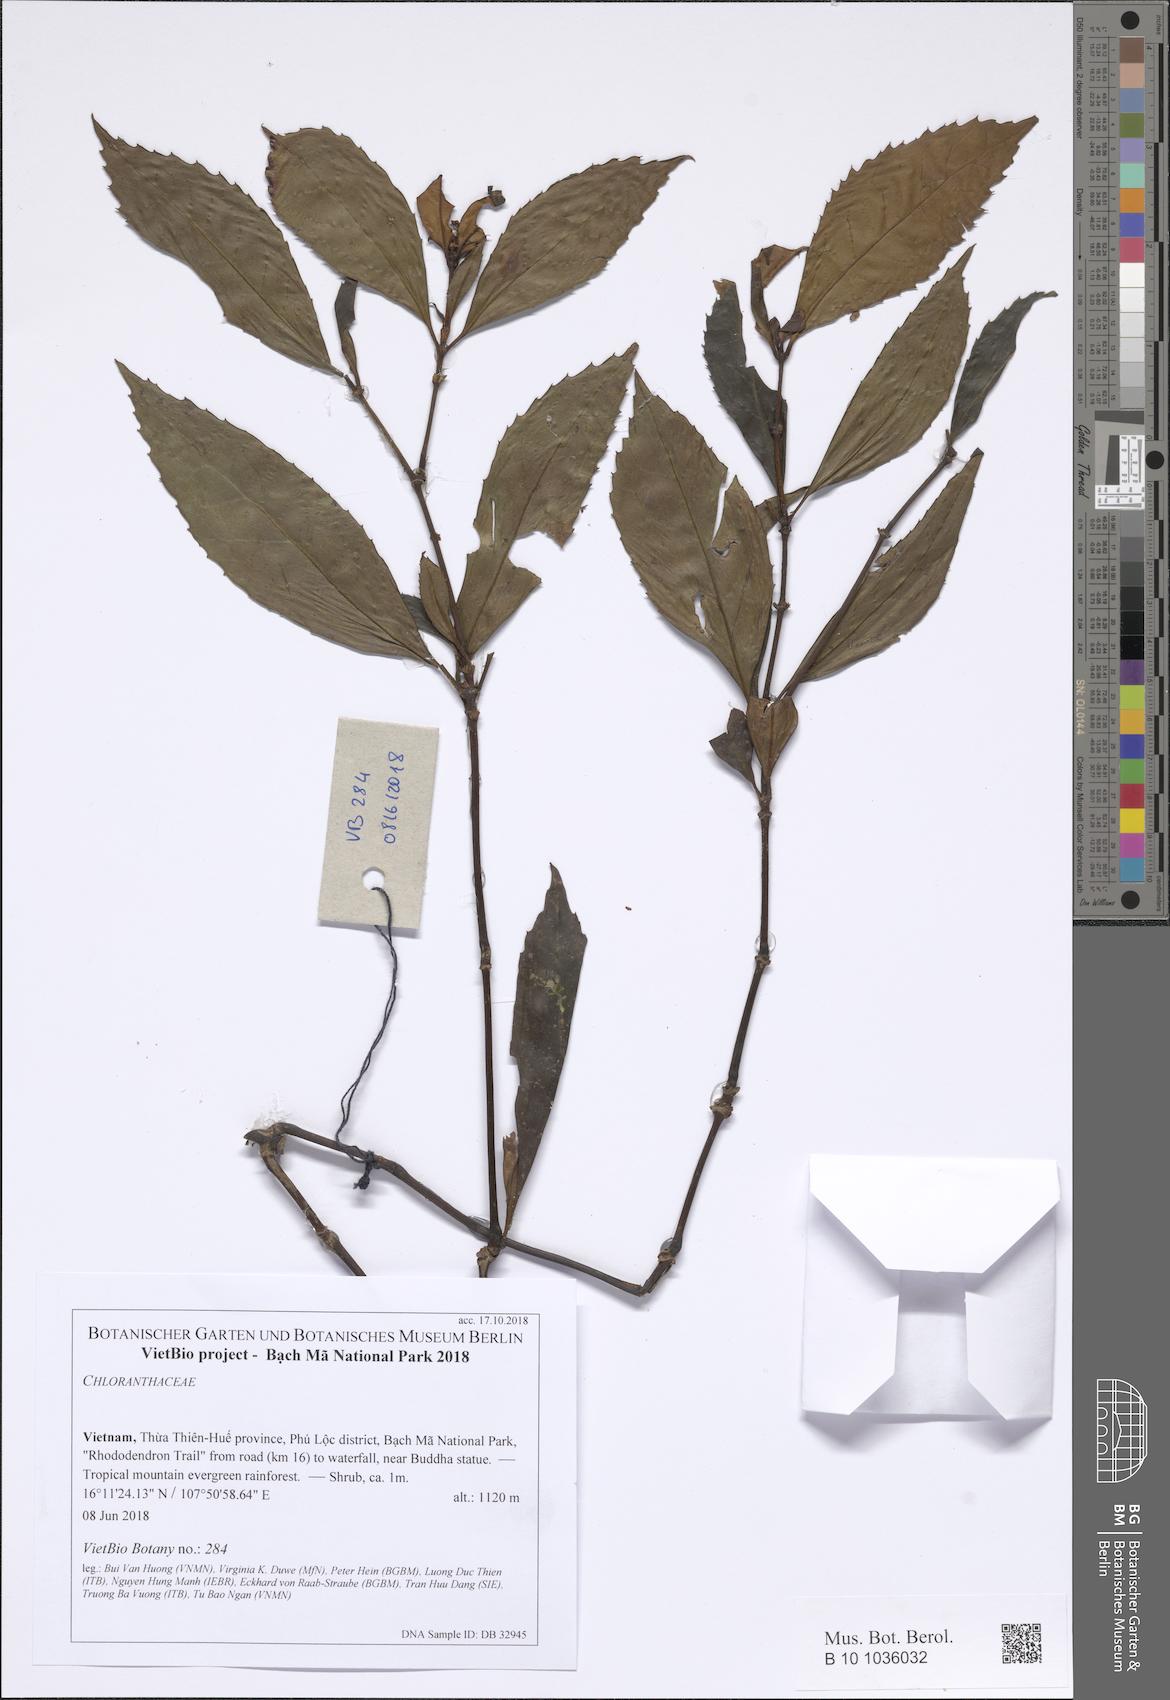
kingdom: Plantae
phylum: Tracheophyta
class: Magnoliopsida
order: Chloranthales
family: Chloranthaceae
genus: Chloranthus
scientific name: Chloranthus elatior
